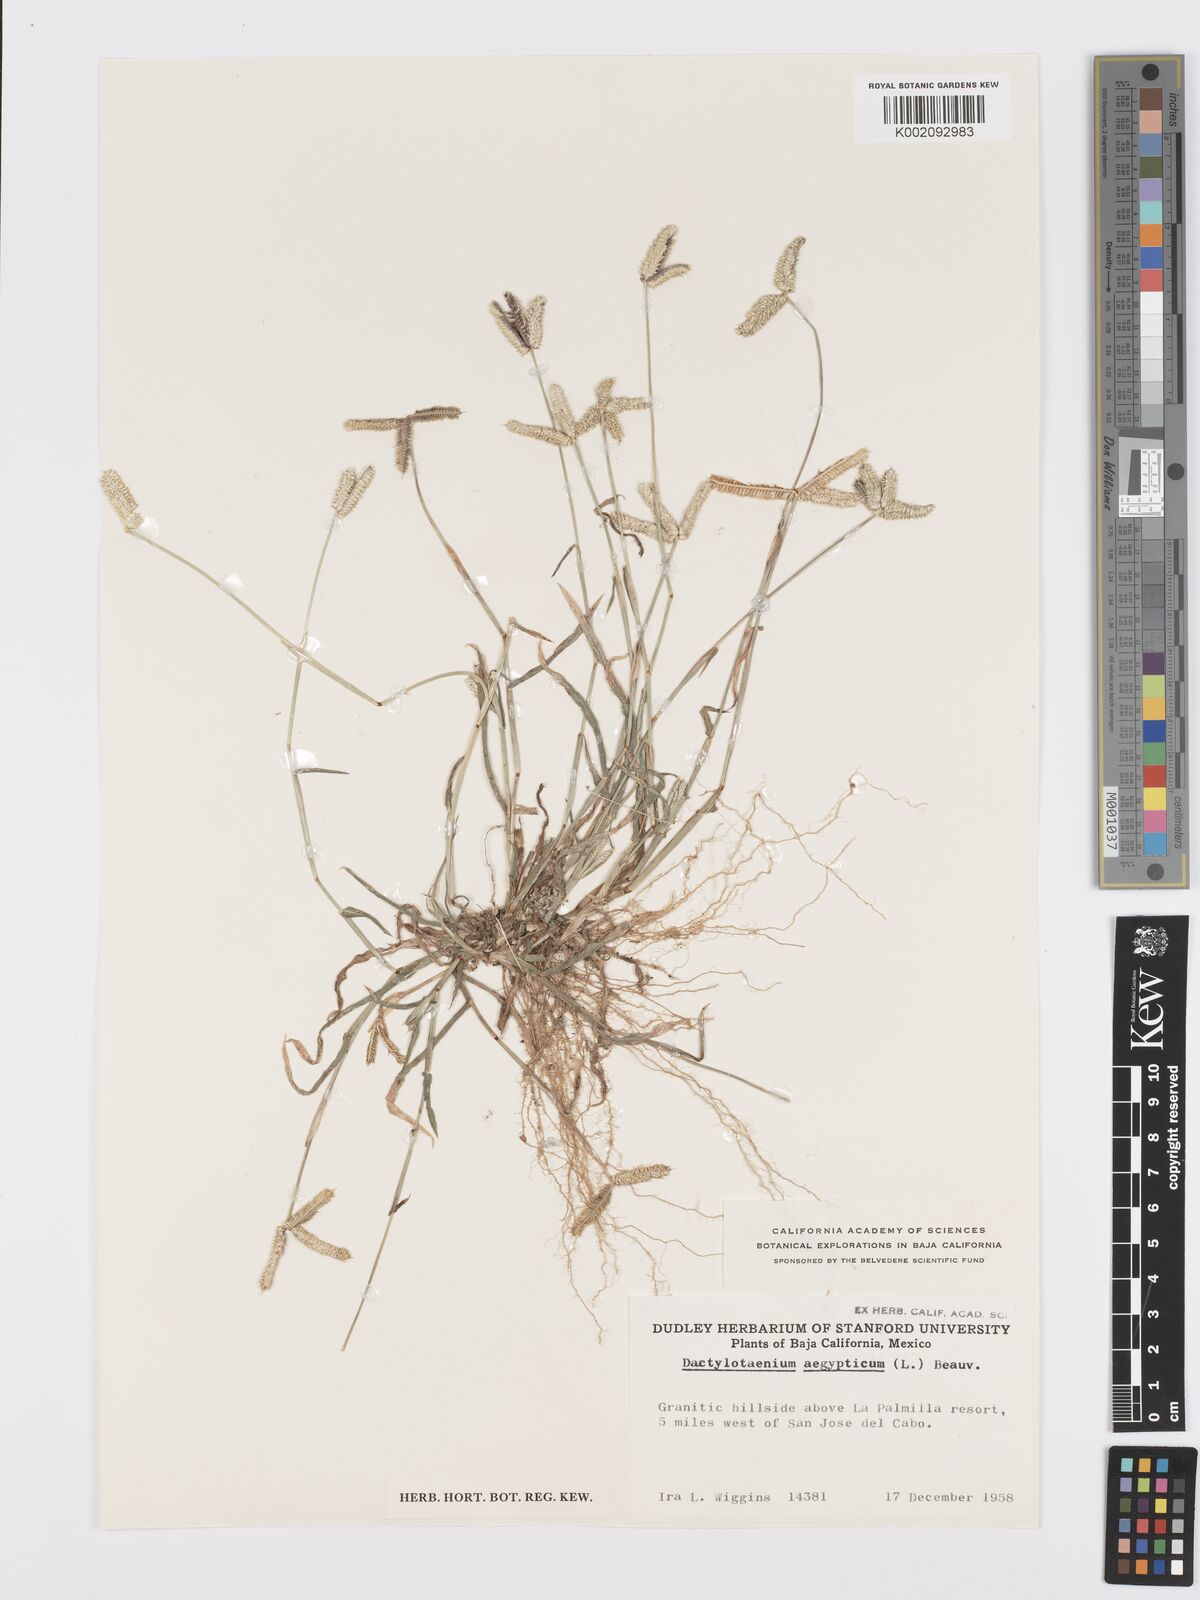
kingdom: Plantae
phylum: Tracheophyta
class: Liliopsida
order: Poales
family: Poaceae
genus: Dactyloctenium
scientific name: Dactyloctenium aegyptium
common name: Egyptian grass
